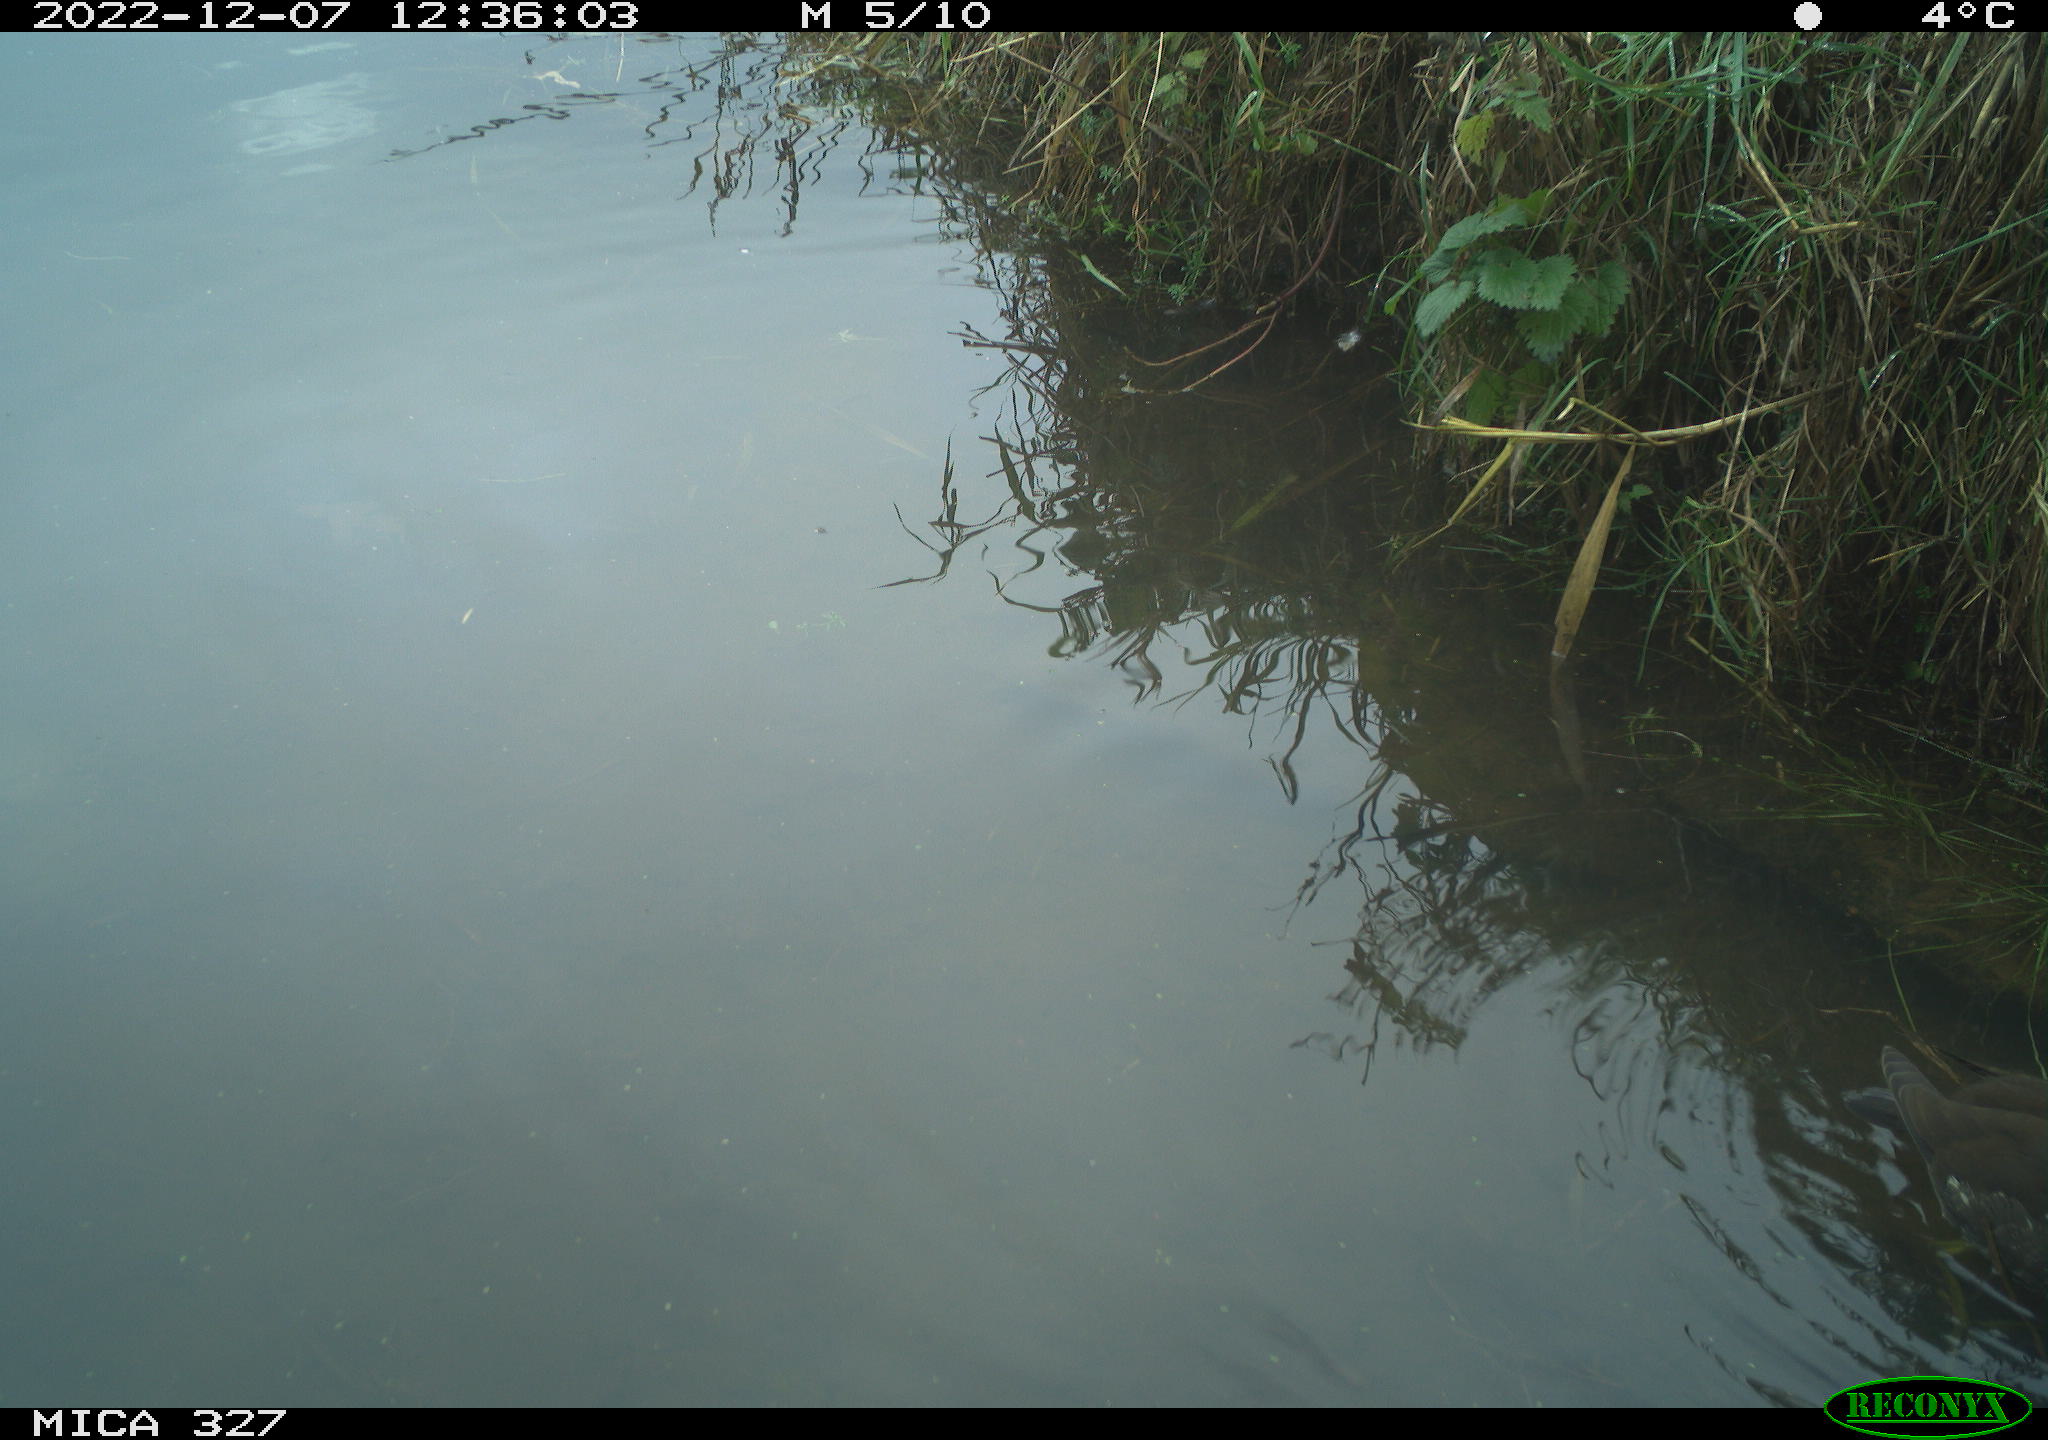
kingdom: Animalia
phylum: Chordata
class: Aves
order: Gruiformes
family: Rallidae
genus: Gallinula
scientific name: Gallinula chloropus
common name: Common moorhen
